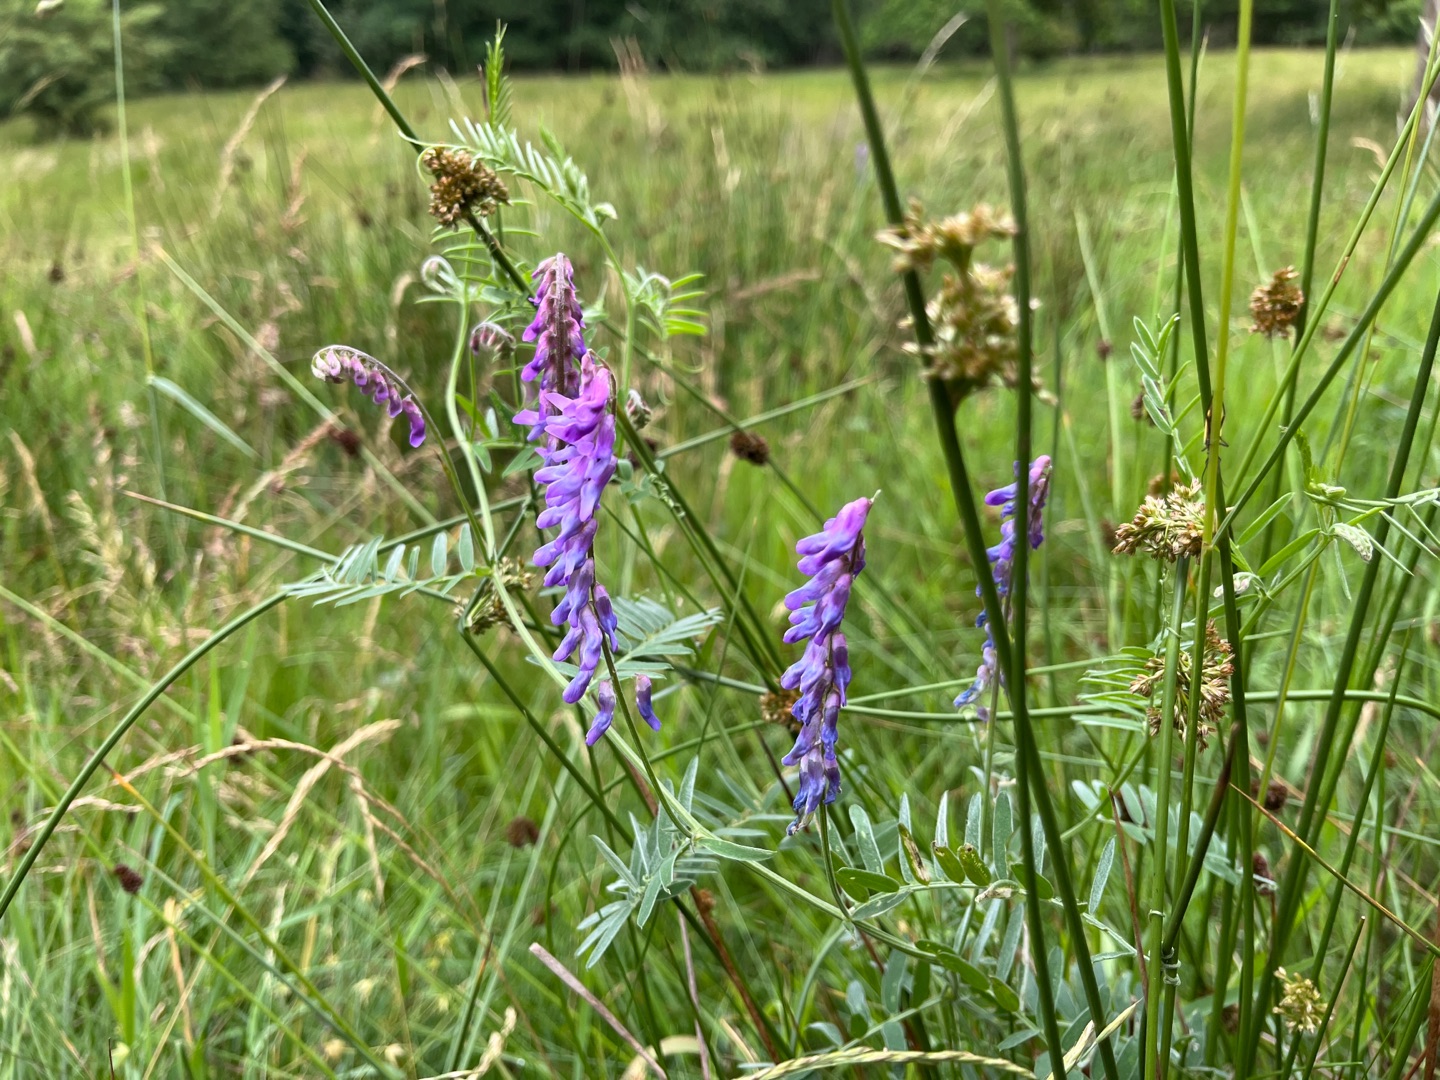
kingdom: Plantae
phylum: Tracheophyta
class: Magnoliopsida
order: Fabales
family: Fabaceae
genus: Vicia
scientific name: Vicia cracca
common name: Muse-vikke
